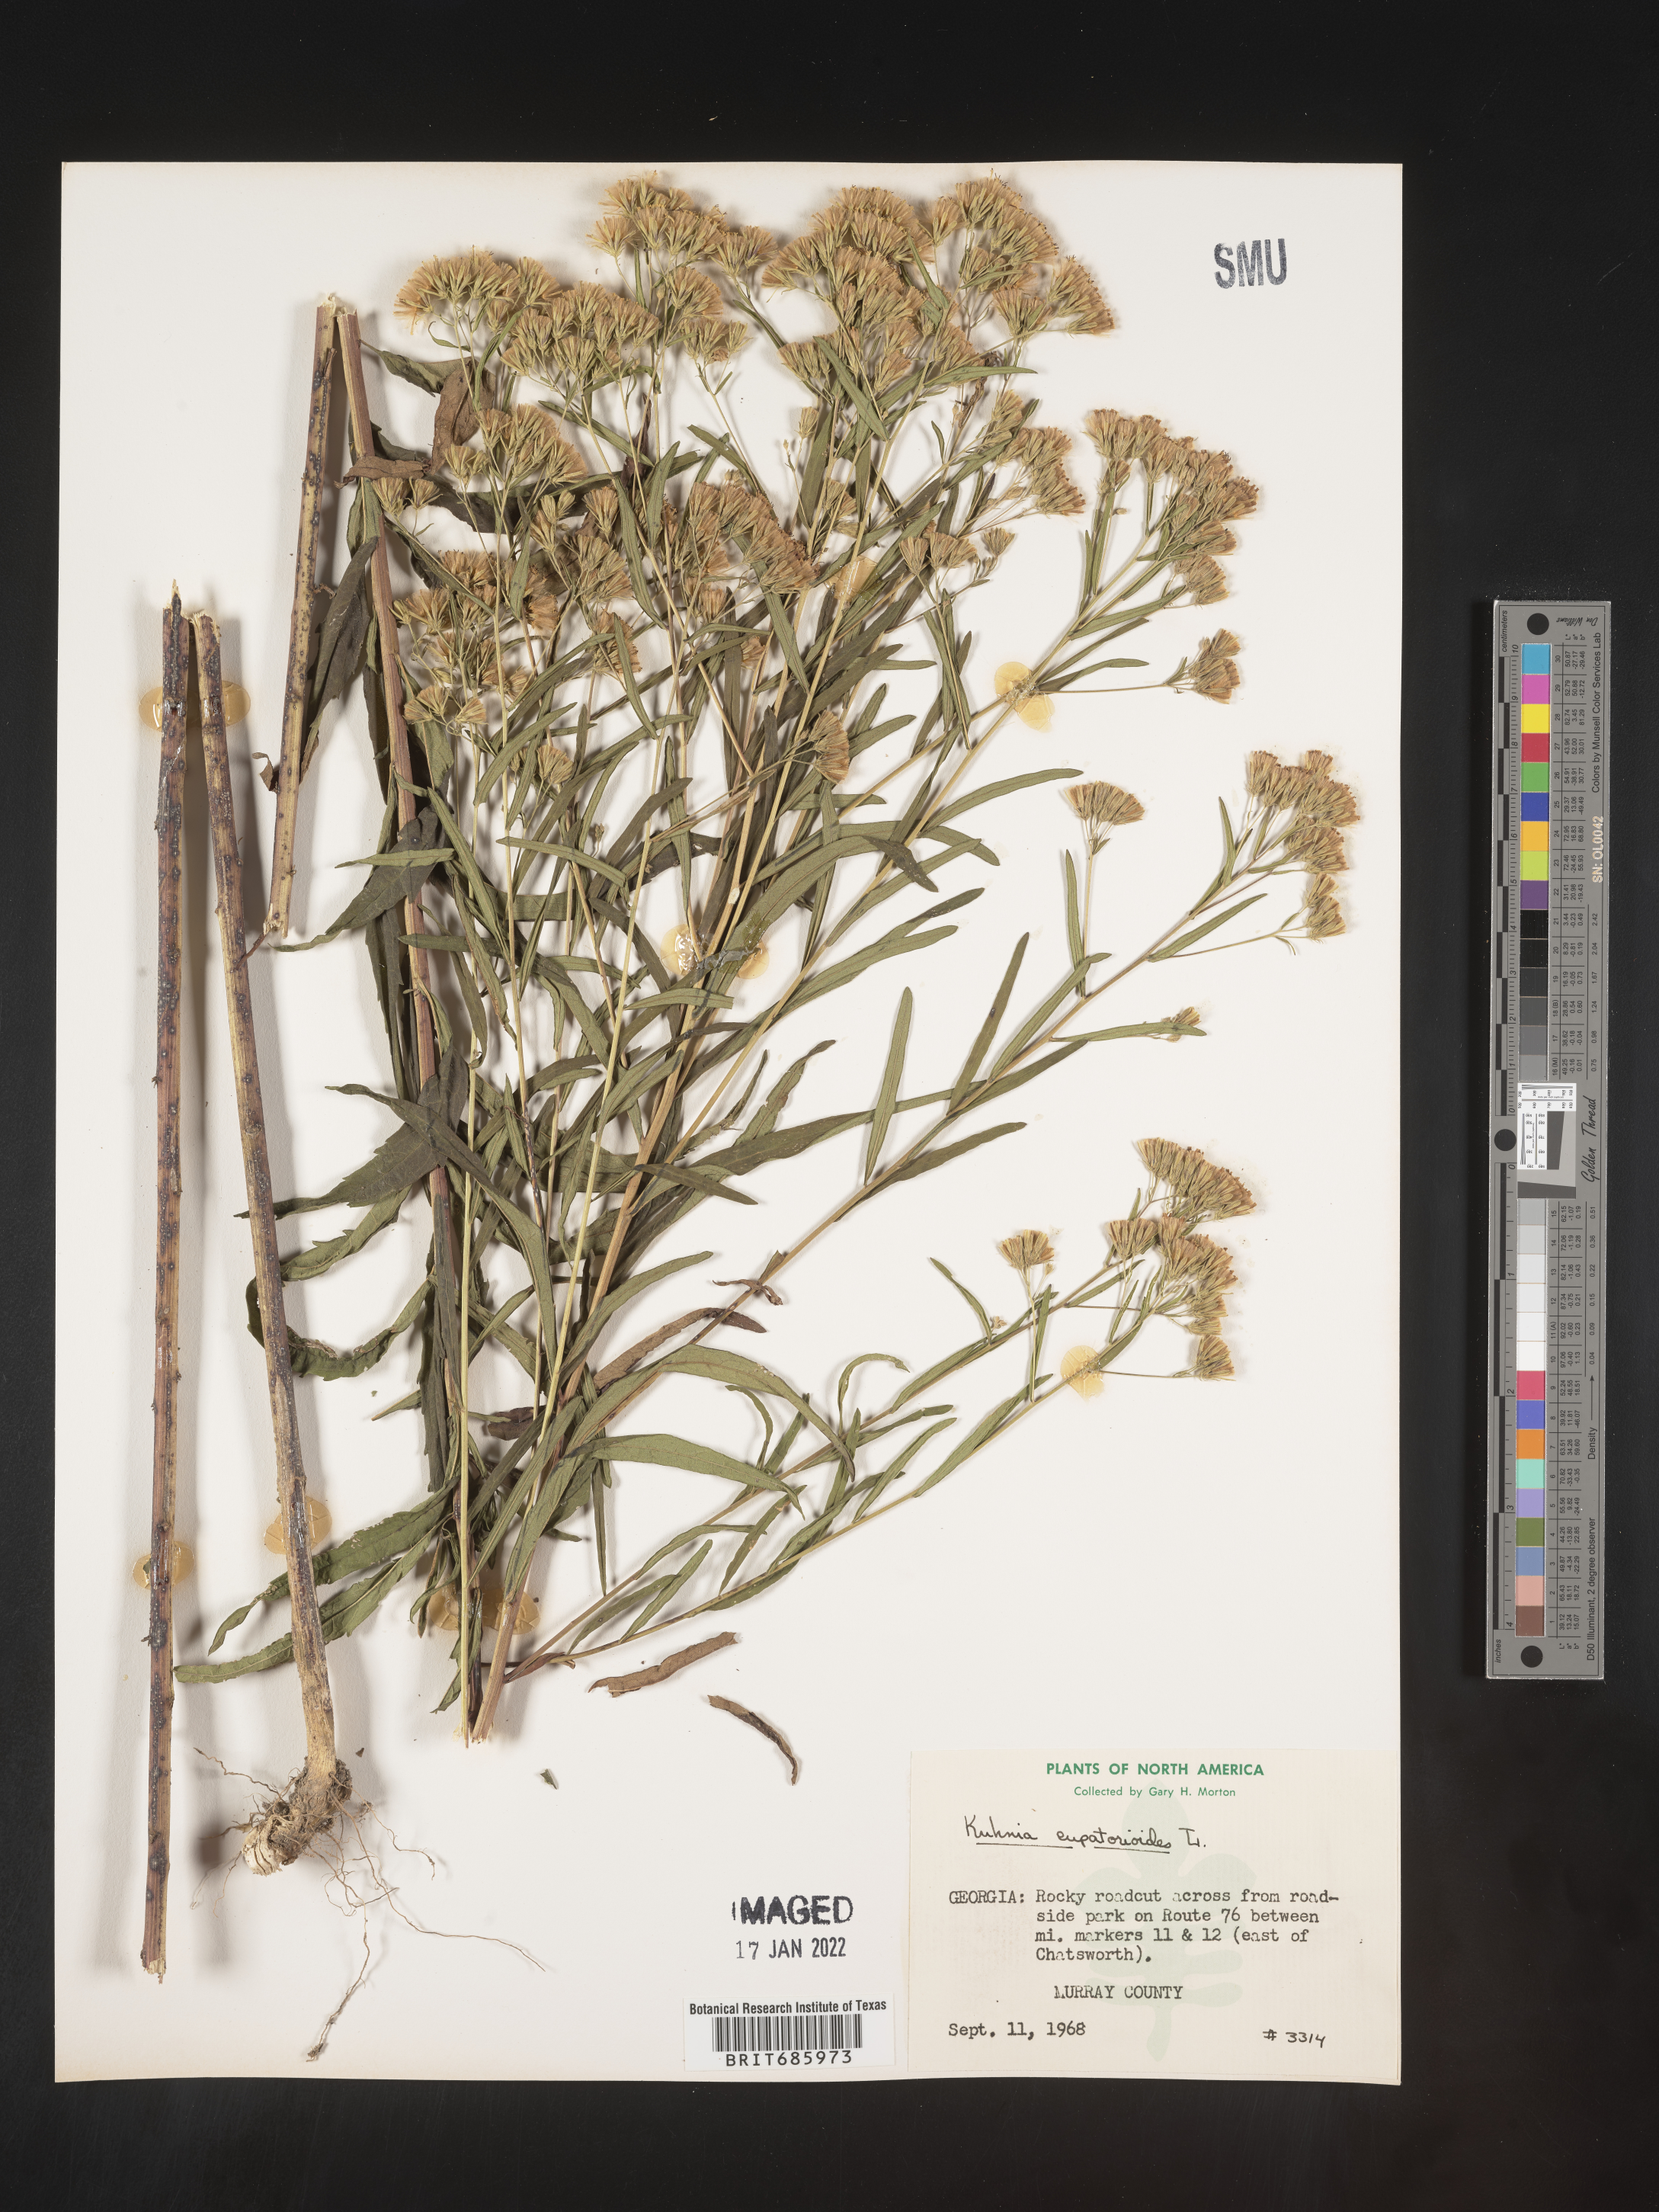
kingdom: Plantae
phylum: Tracheophyta
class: Magnoliopsida
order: Asterales
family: Asteraceae
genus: Brickellia
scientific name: Brickellia eupatorioides
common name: False boneset
